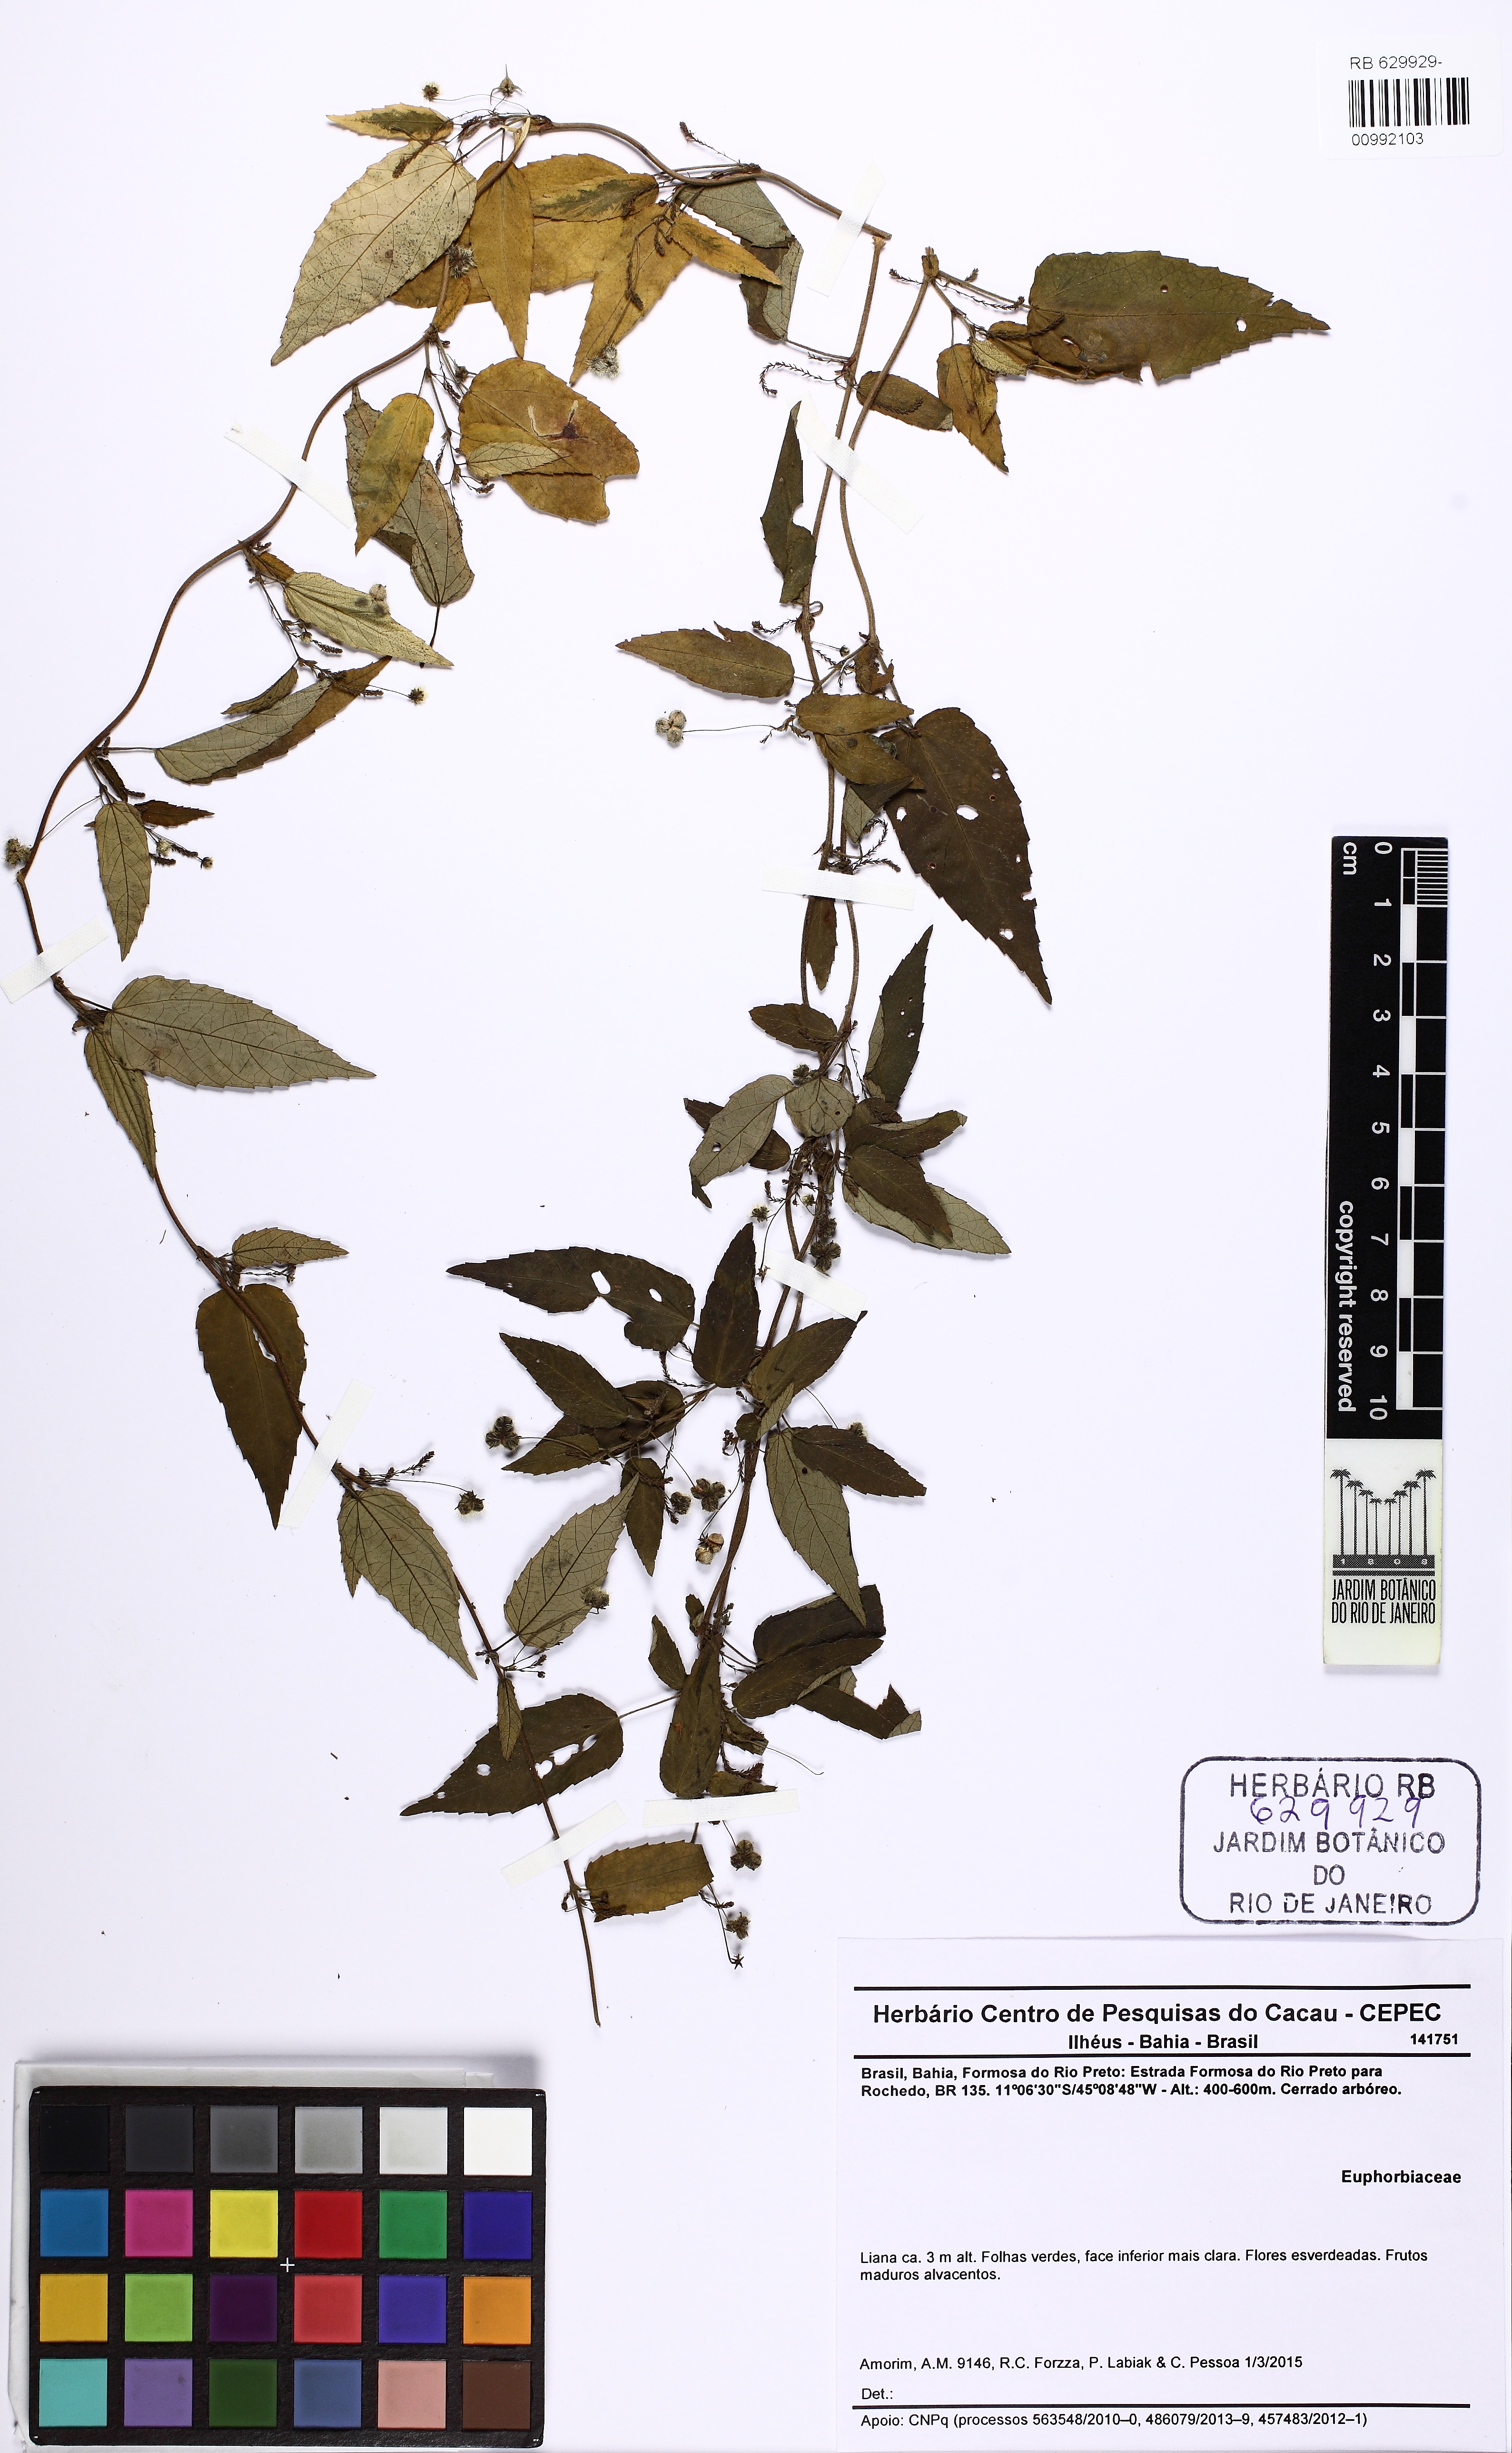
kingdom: Plantae
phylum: Tracheophyta
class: Magnoliopsida
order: Malpighiales
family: Euphorbiaceae
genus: Tragia
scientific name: Tragia volubilis
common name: Twining cow-itch
